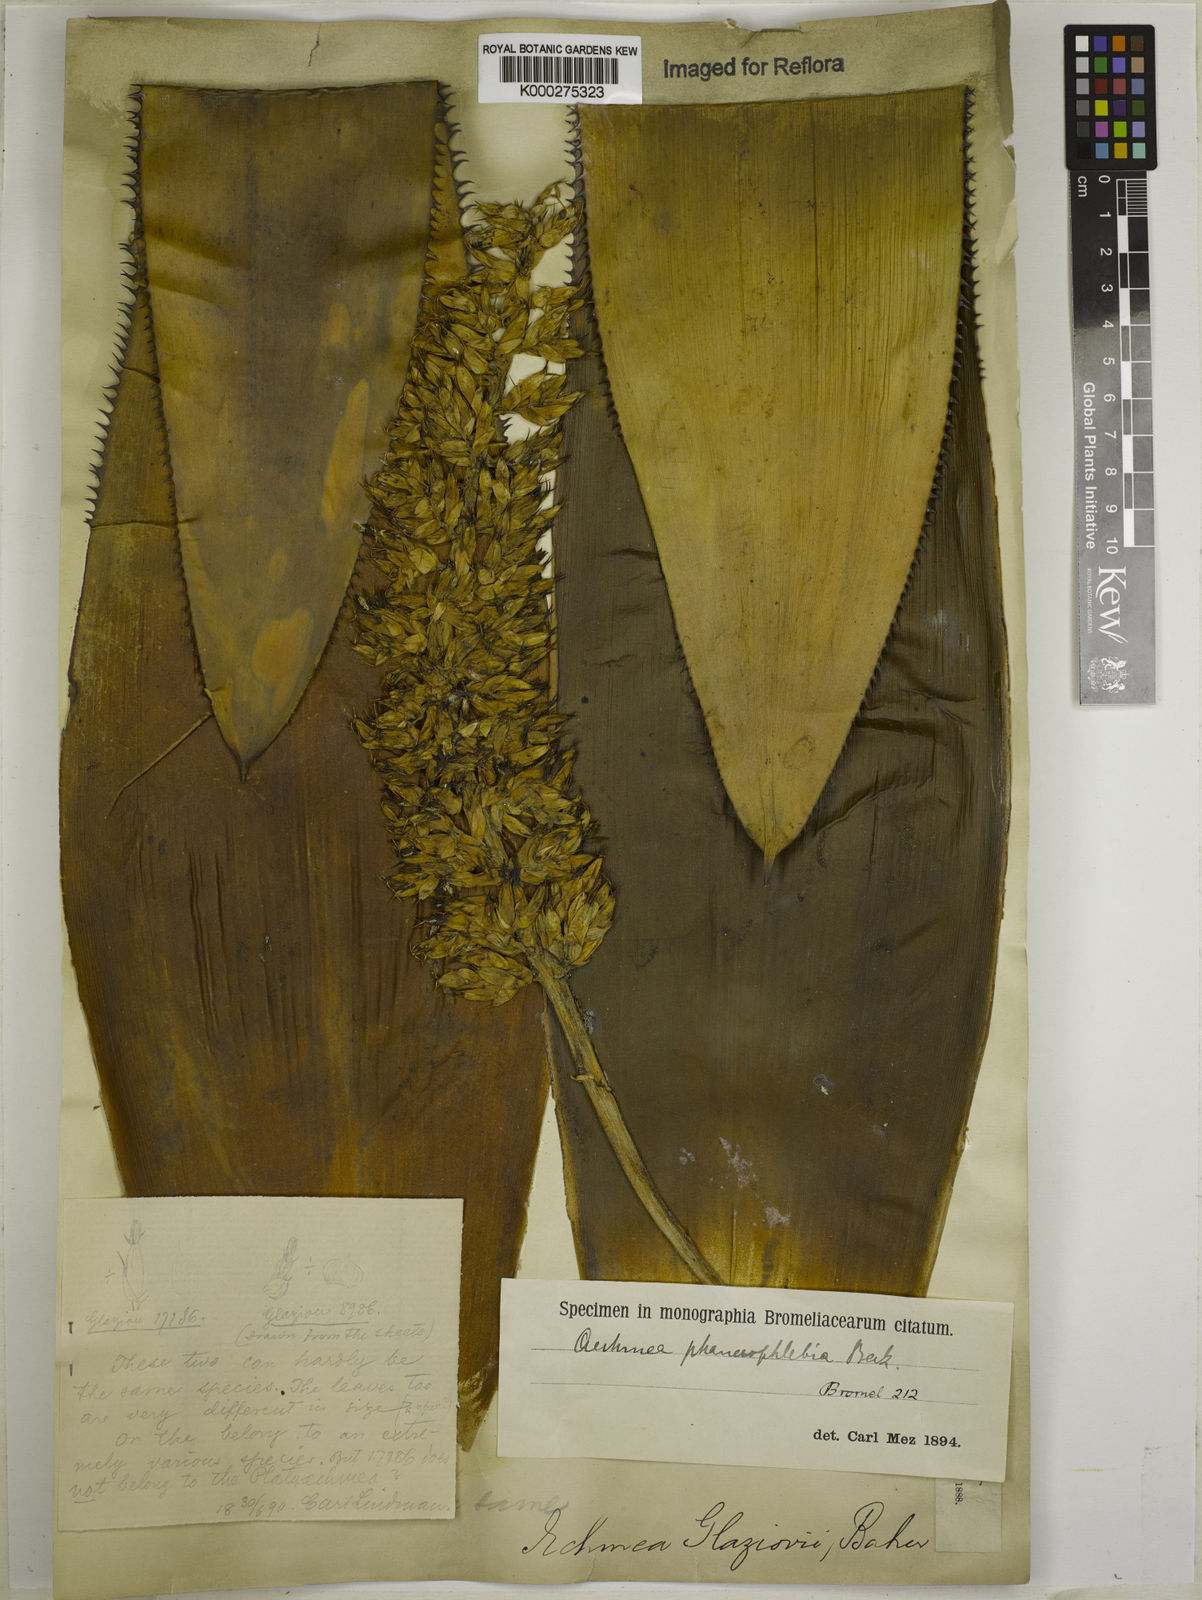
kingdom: Plantae
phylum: Tracheophyta
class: Liliopsida
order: Poales
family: Bromeliaceae
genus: Aechmea
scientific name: Aechmea phanerophlebia
